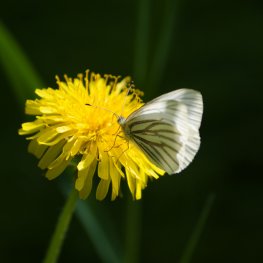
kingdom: Animalia
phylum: Arthropoda
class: Insecta
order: Lepidoptera
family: Pieridae
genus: Pieris
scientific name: Pieris oleracea
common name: Mustard White
